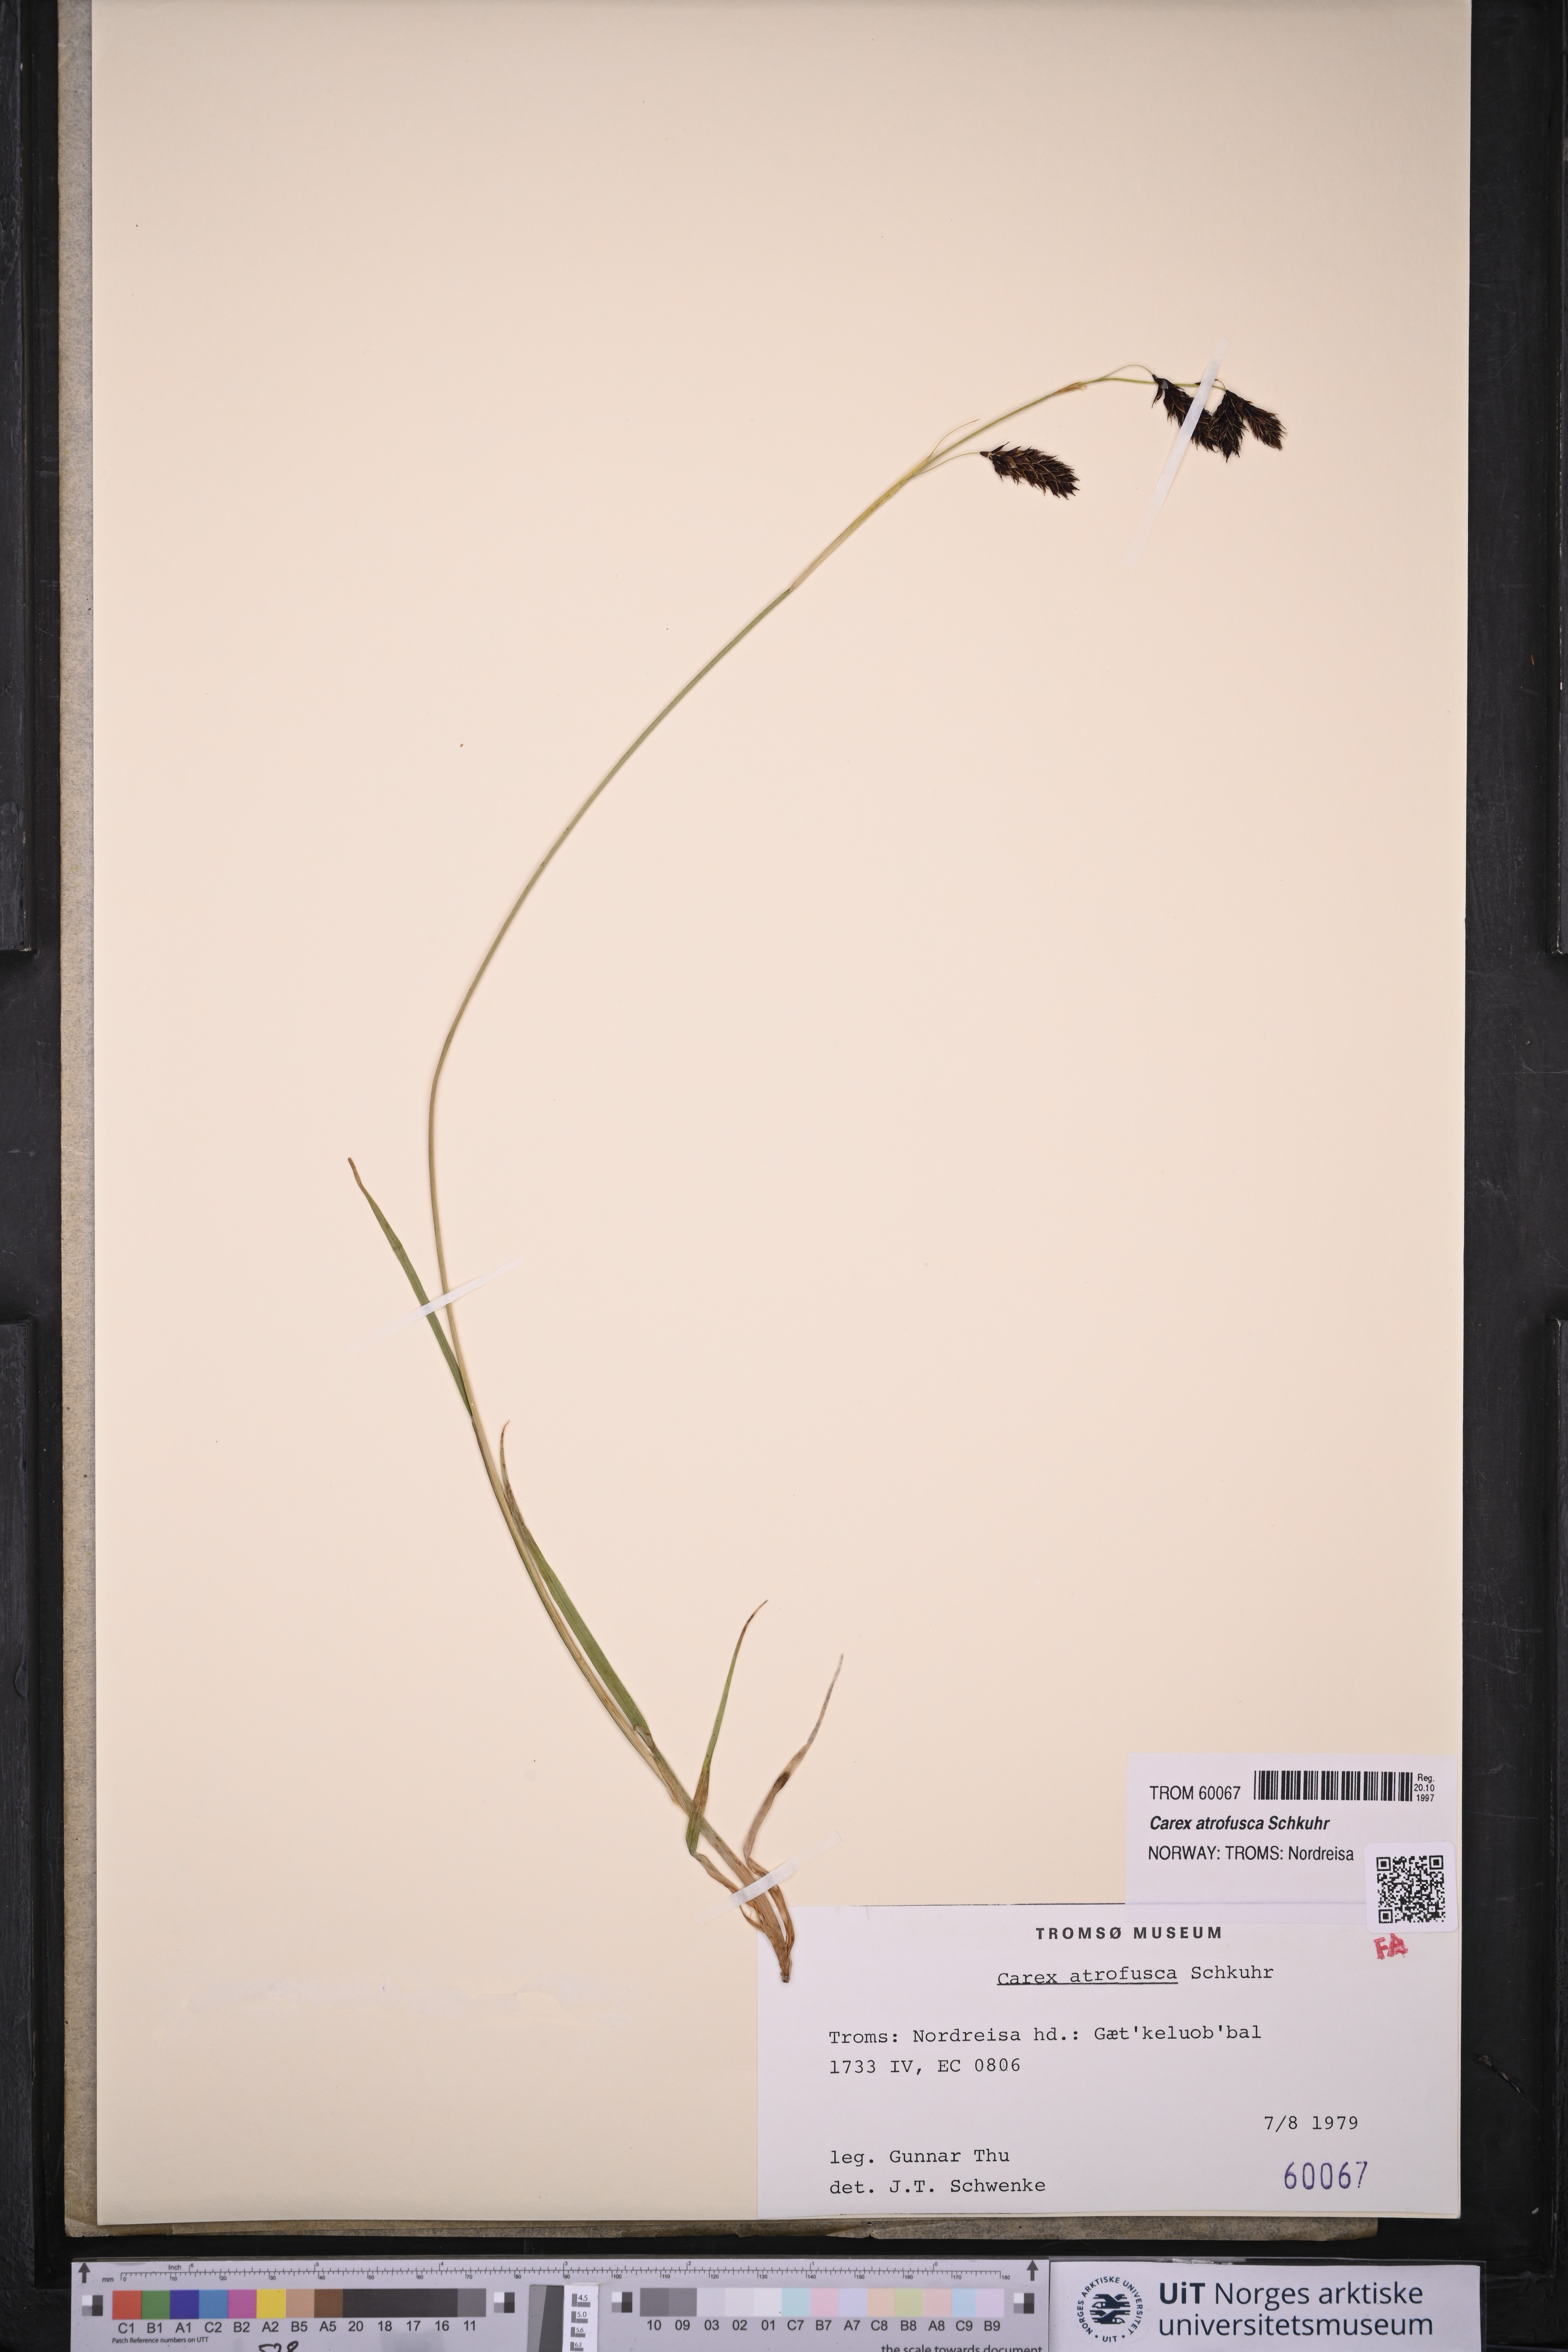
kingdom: Plantae
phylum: Tracheophyta
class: Liliopsida
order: Poales
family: Cyperaceae
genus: Carex
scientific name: Carex atrofusca
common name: Scorched alpine-sedge
